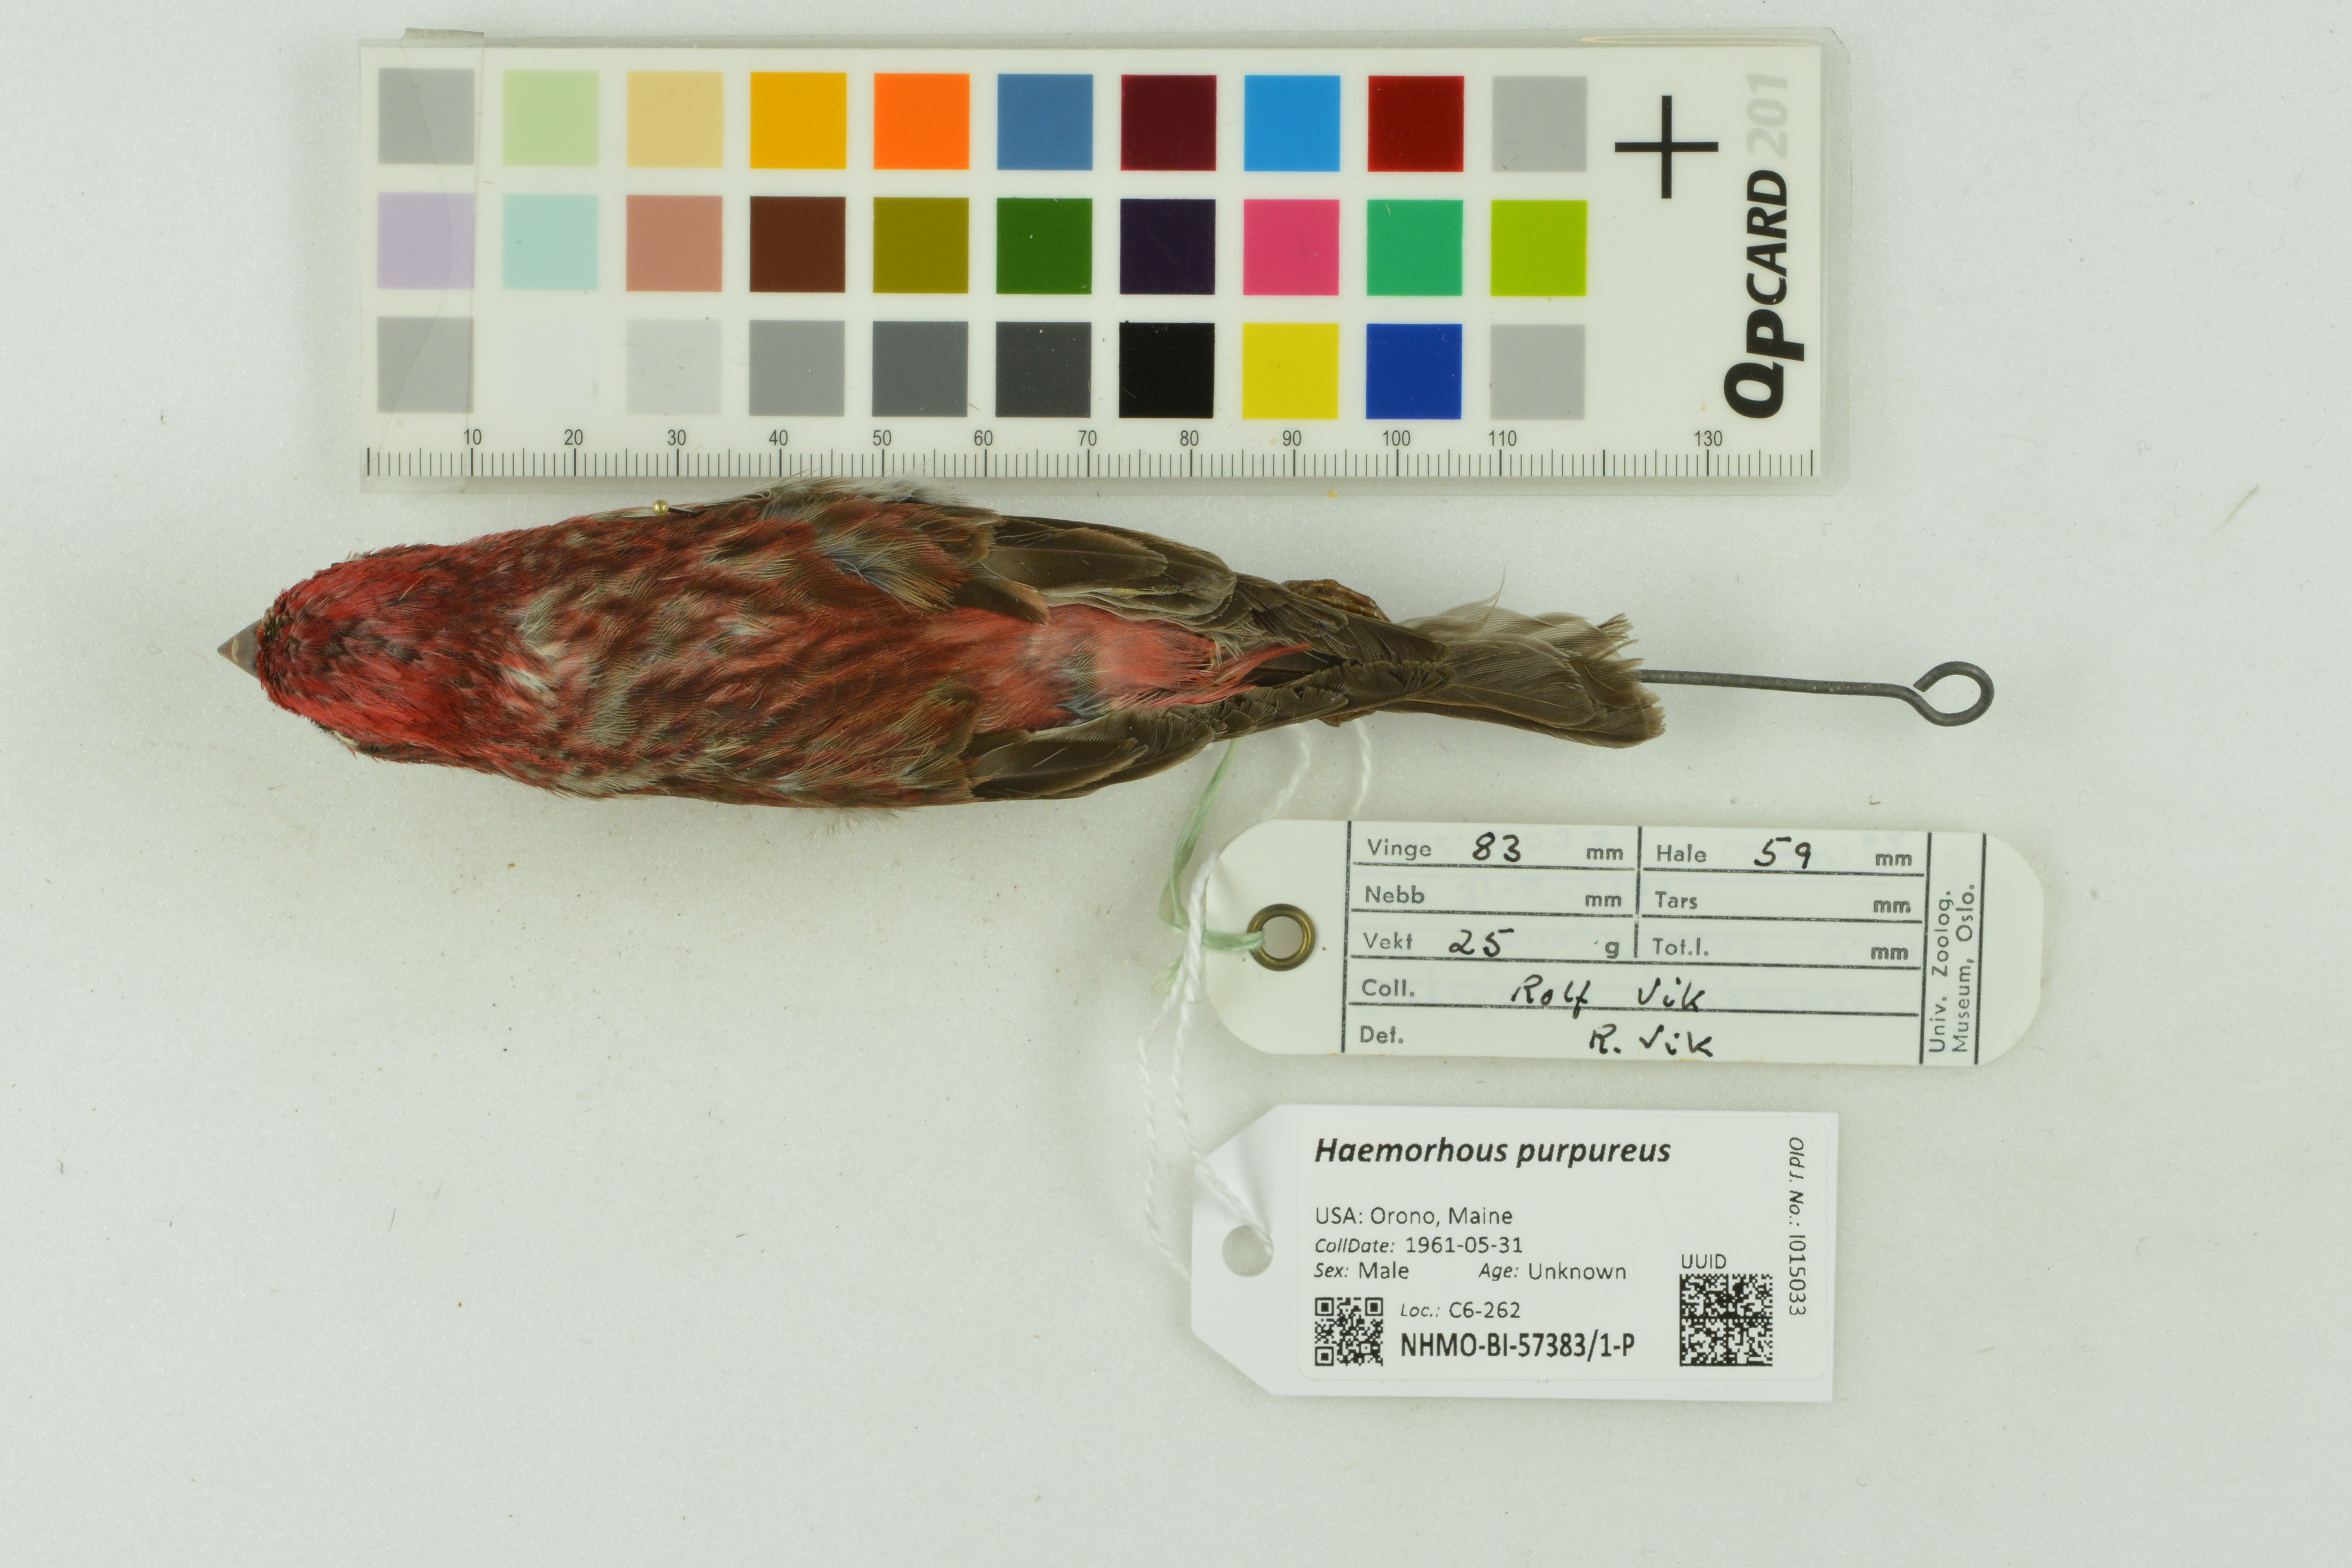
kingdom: Animalia
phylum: Chordata
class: Aves
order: Passeriformes
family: Fringillidae
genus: Haemorhous
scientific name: Haemorhous purpureus
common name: Purple finch
